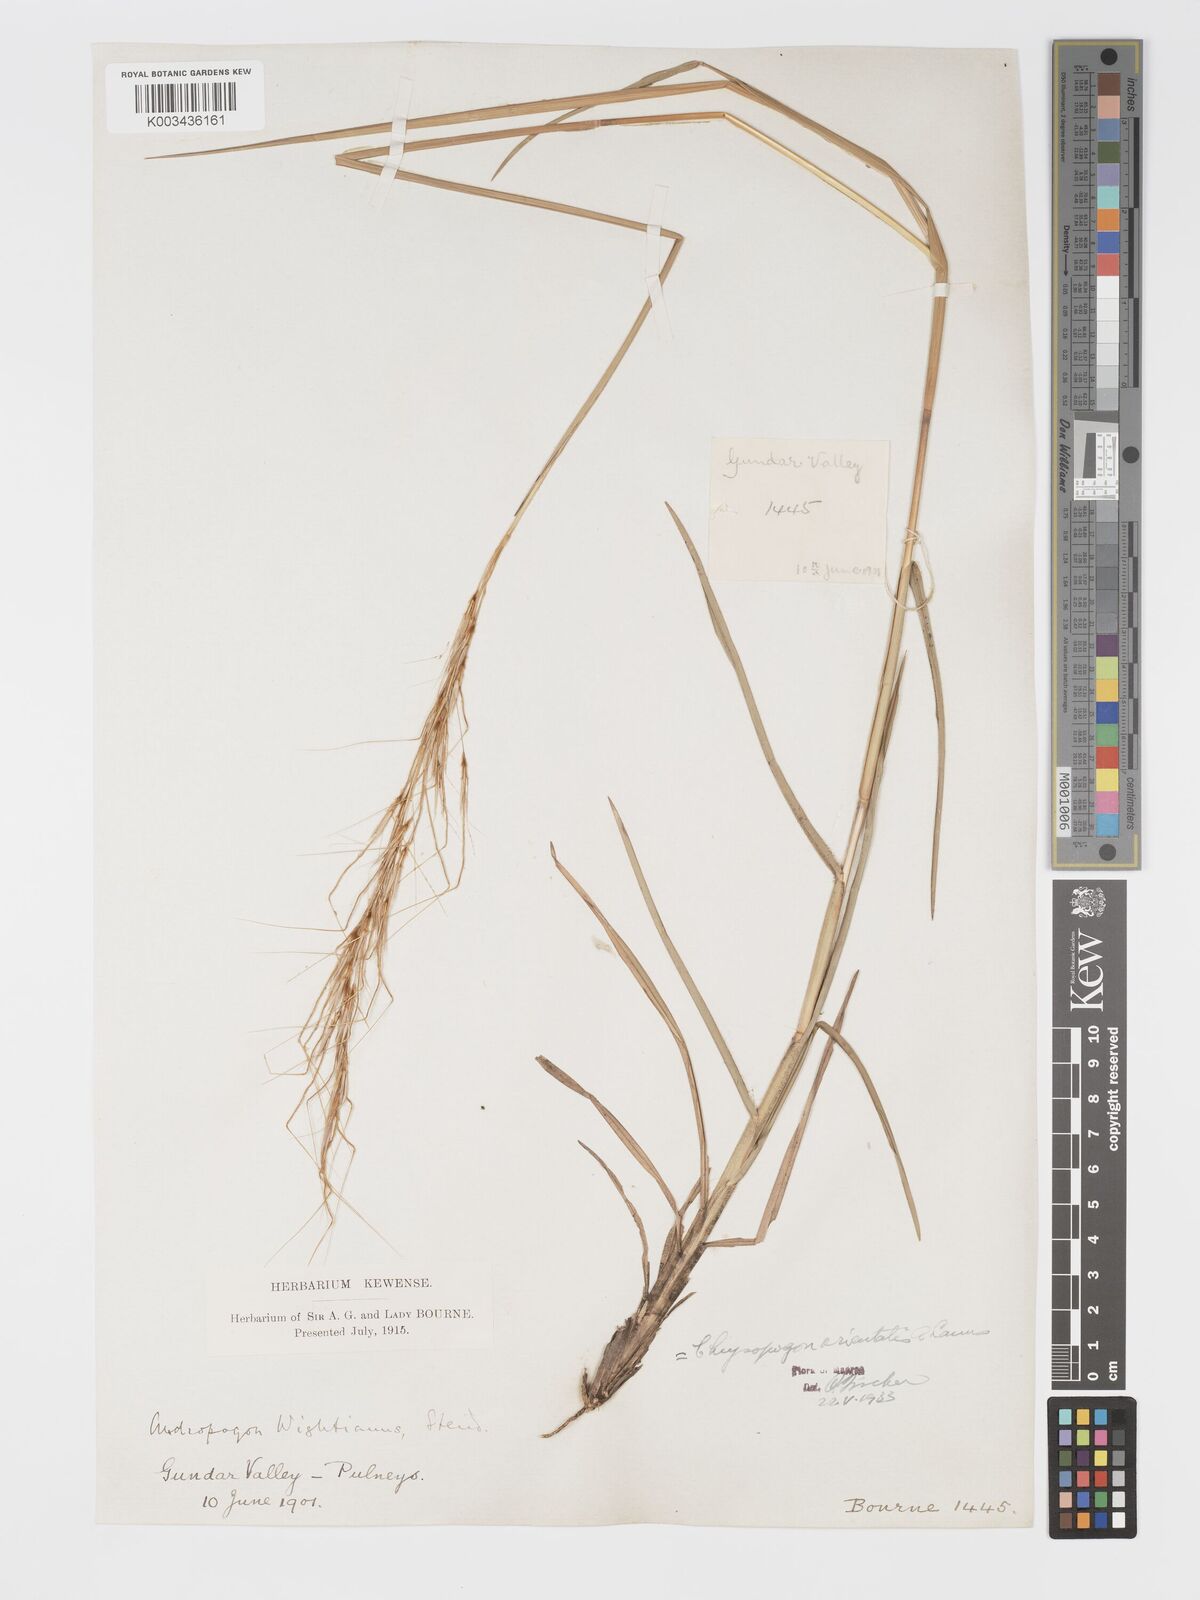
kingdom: Plantae
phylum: Tracheophyta
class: Liliopsida
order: Poales
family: Poaceae
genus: Chrysopogon
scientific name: Chrysopogon orientalis
